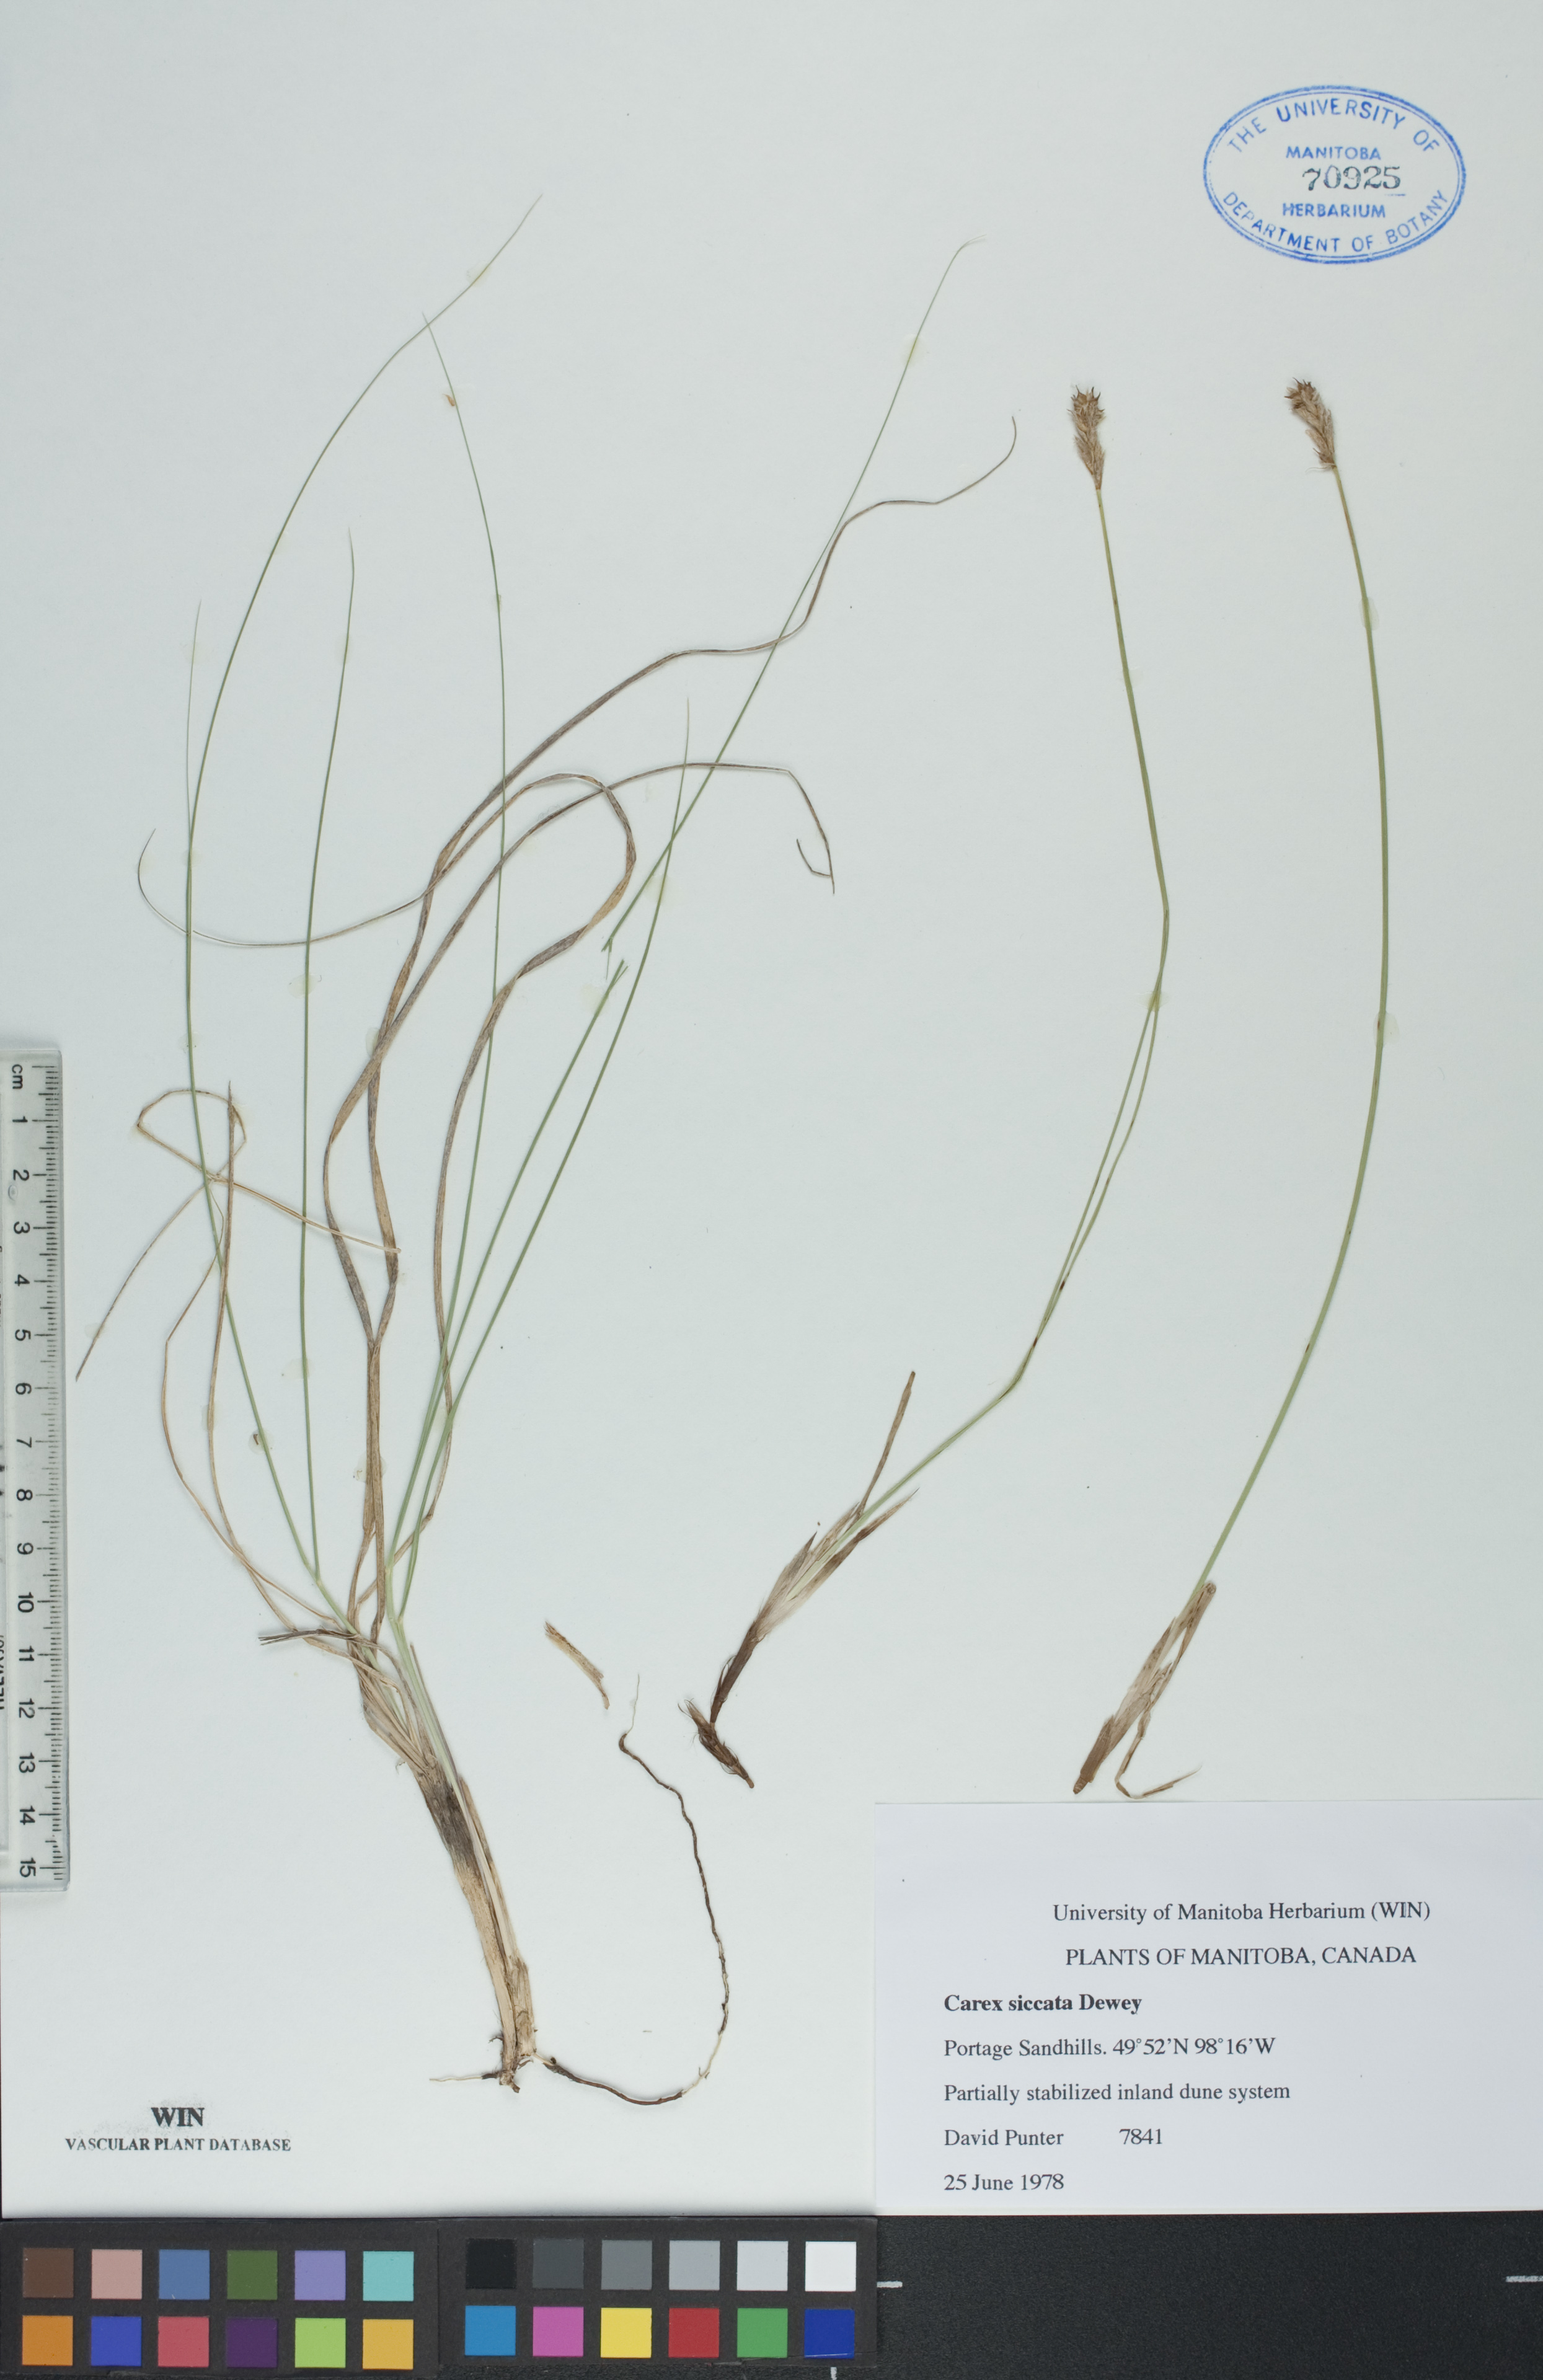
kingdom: Plantae
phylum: Tracheophyta
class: Liliopsida
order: Poales
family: Cyperaceae
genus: Carex
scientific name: Carex siccata
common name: Dry sedge
